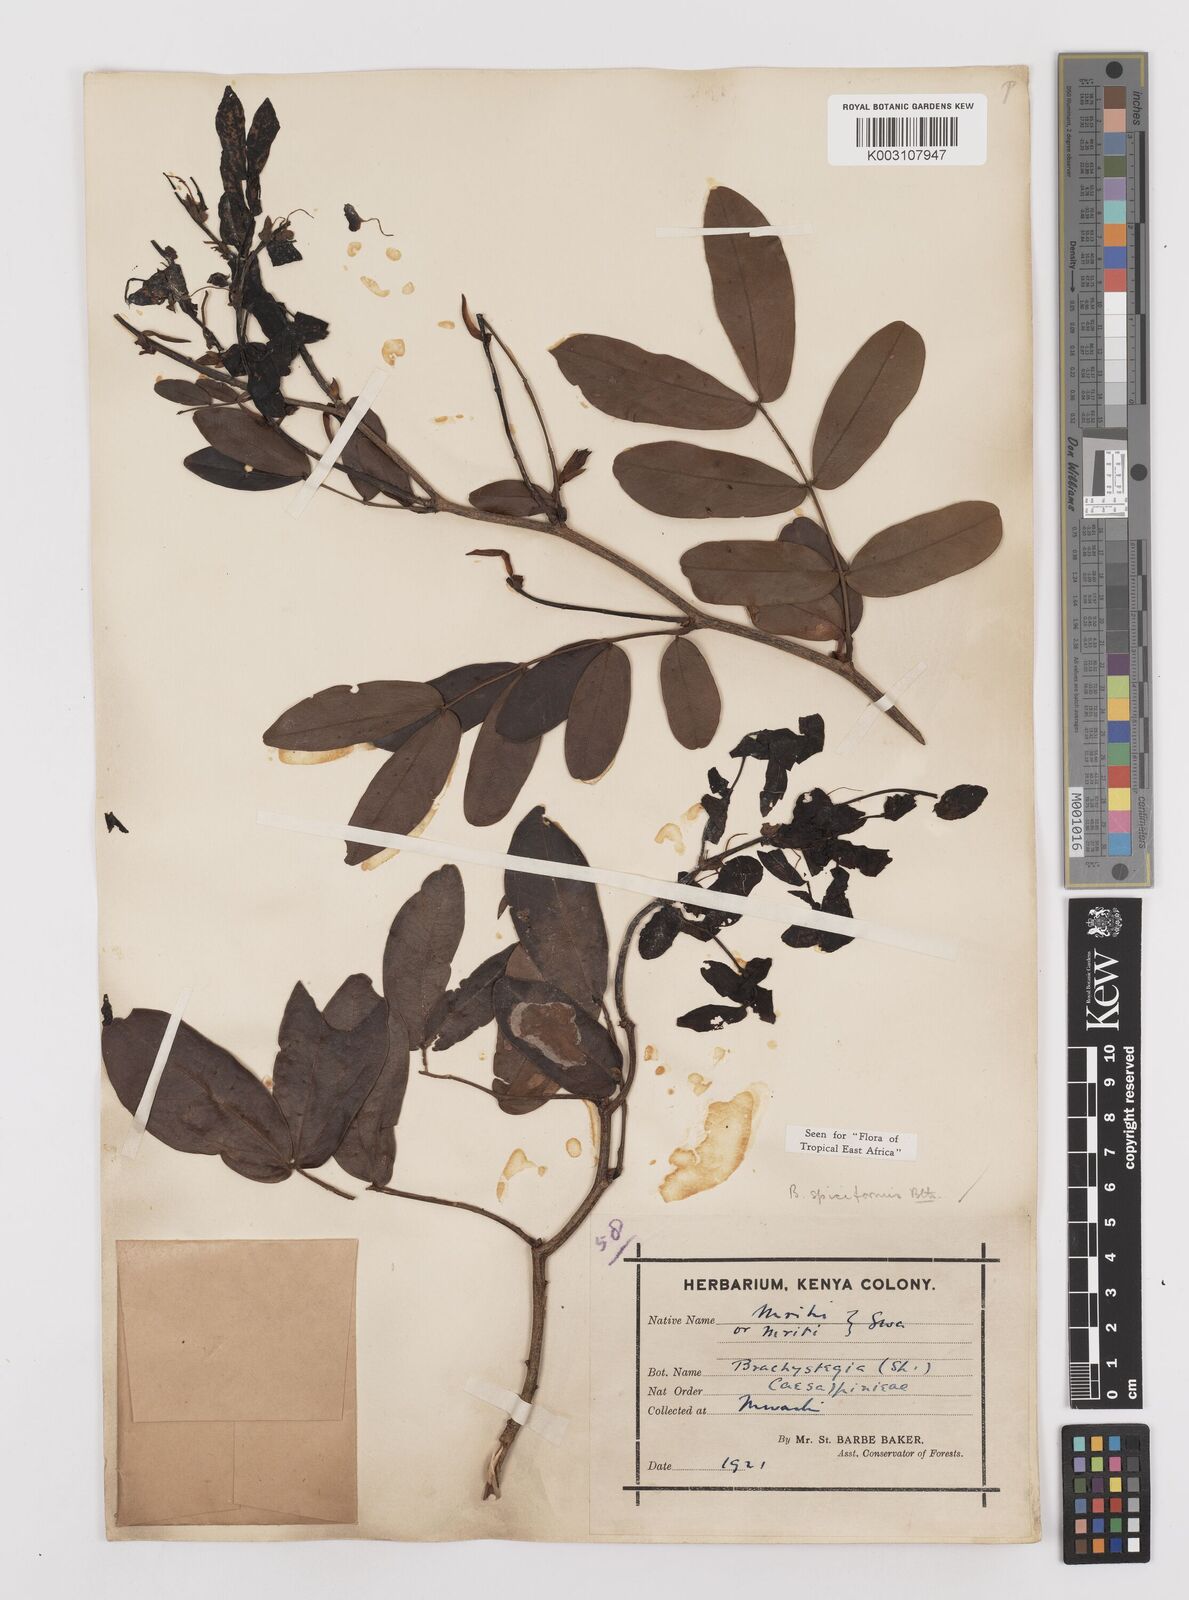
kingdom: Plantae
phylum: Tracheophyta
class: Magnoliopsida
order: Fabales
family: Fabaceae
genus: Brachystegia
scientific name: Brachystegia spiciformis
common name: Zebrawood
